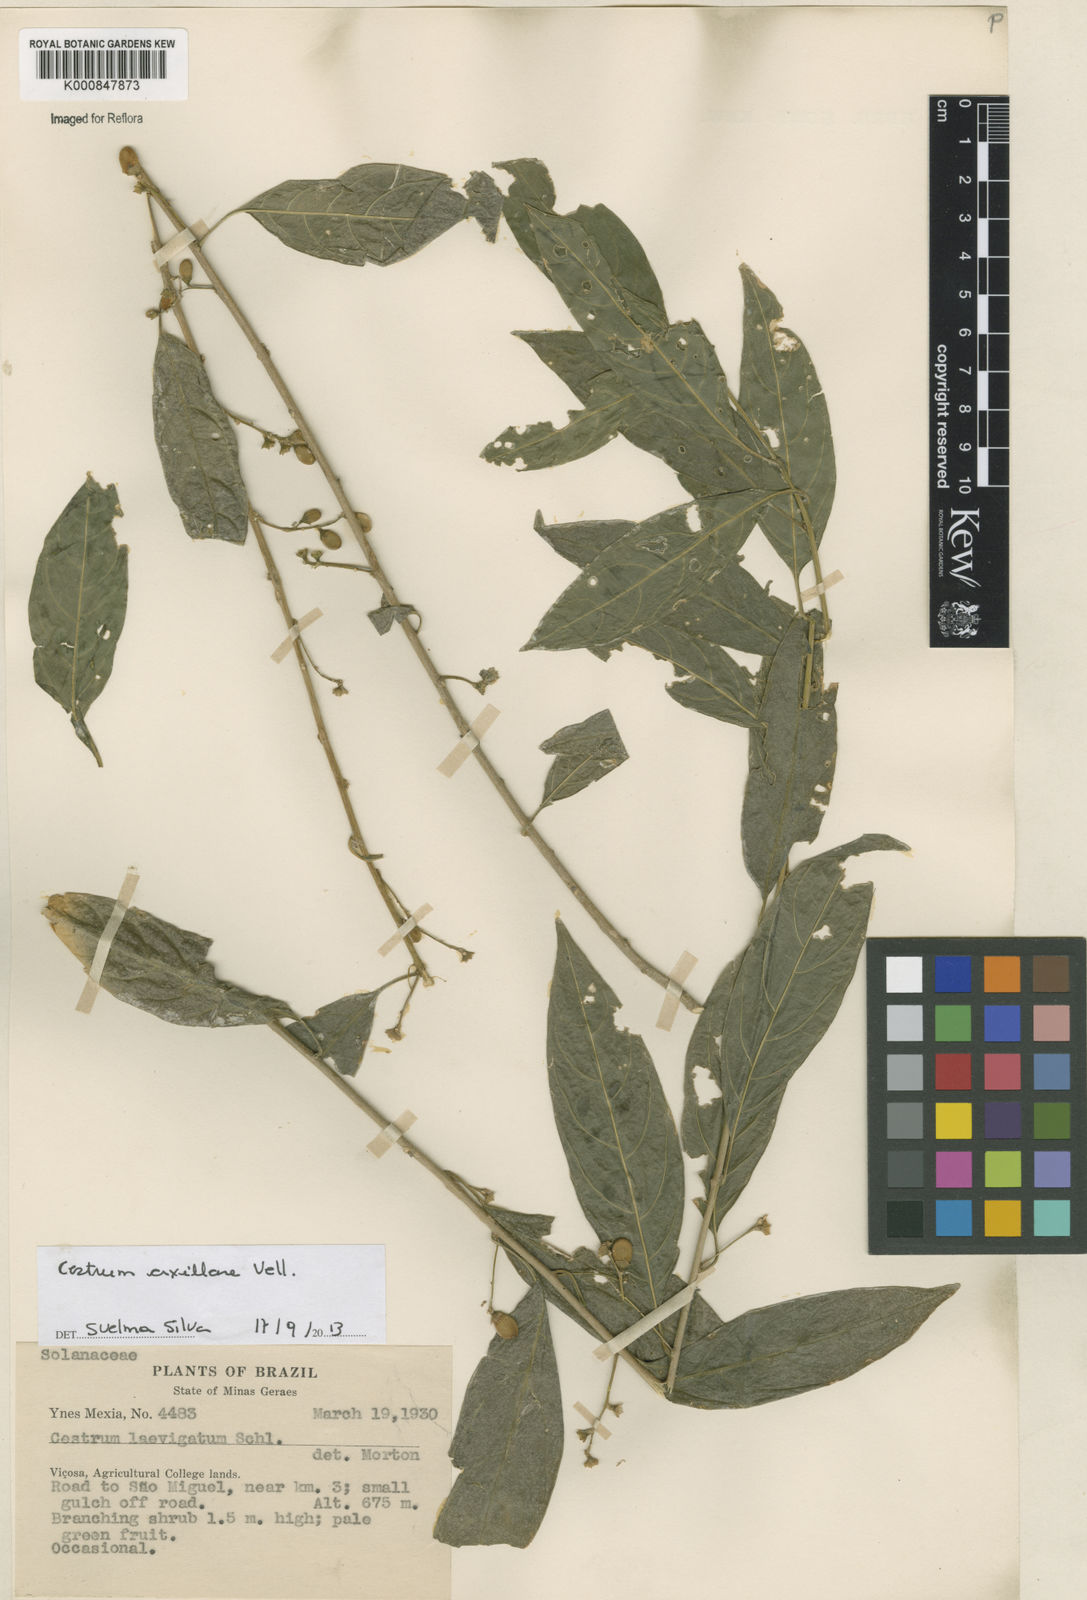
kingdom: Plantae
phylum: Tracheophyta
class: Magnoliopsida
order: Solanales
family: Solanaceae
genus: Cestrum
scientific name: Cestrum laevigatum
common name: Inkberry
